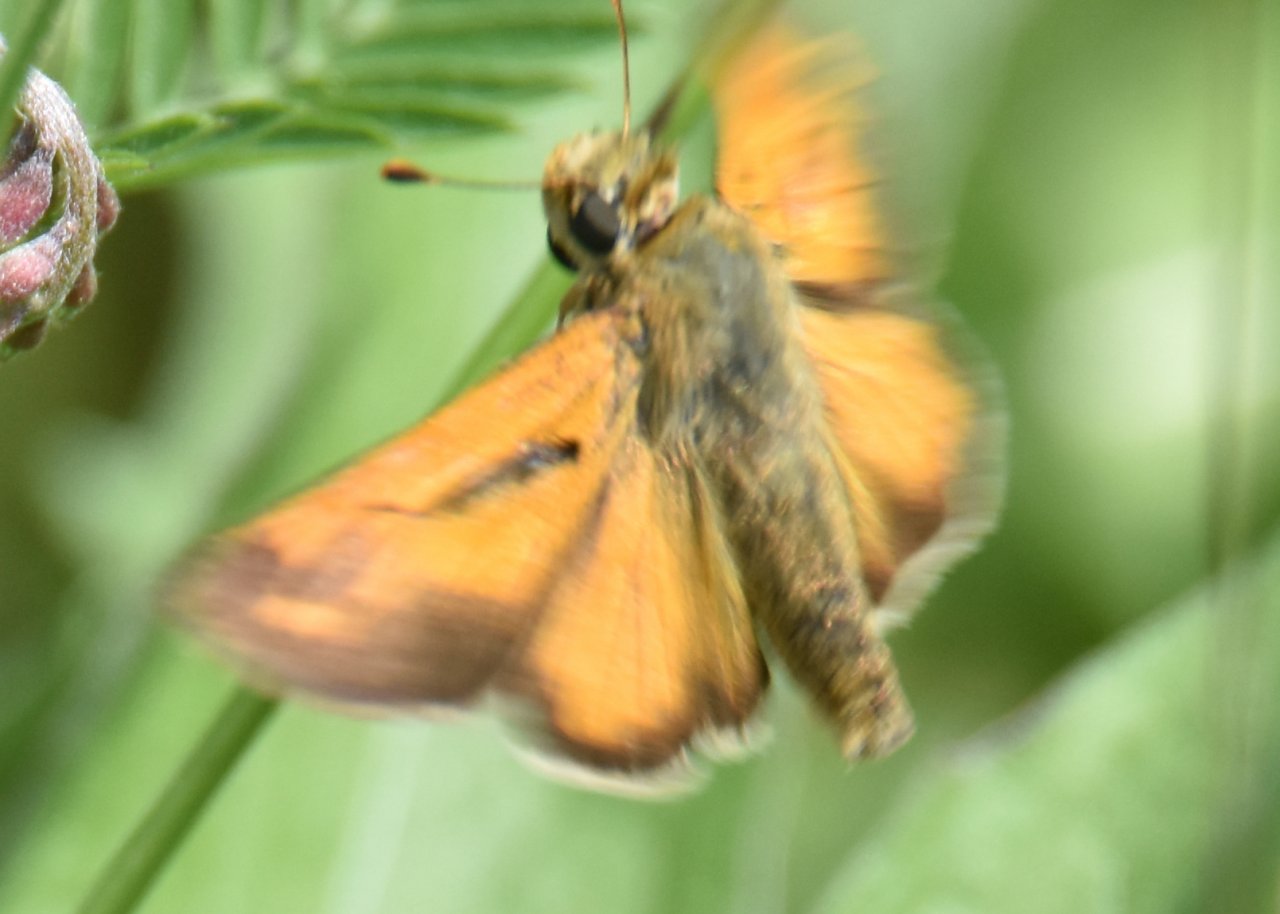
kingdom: Animalia
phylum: Arthropoda
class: Insecta
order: Lepidoptera
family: Hesperiidae
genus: Hesperia
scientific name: Hesperia sassacus
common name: Sassacus Skipper
